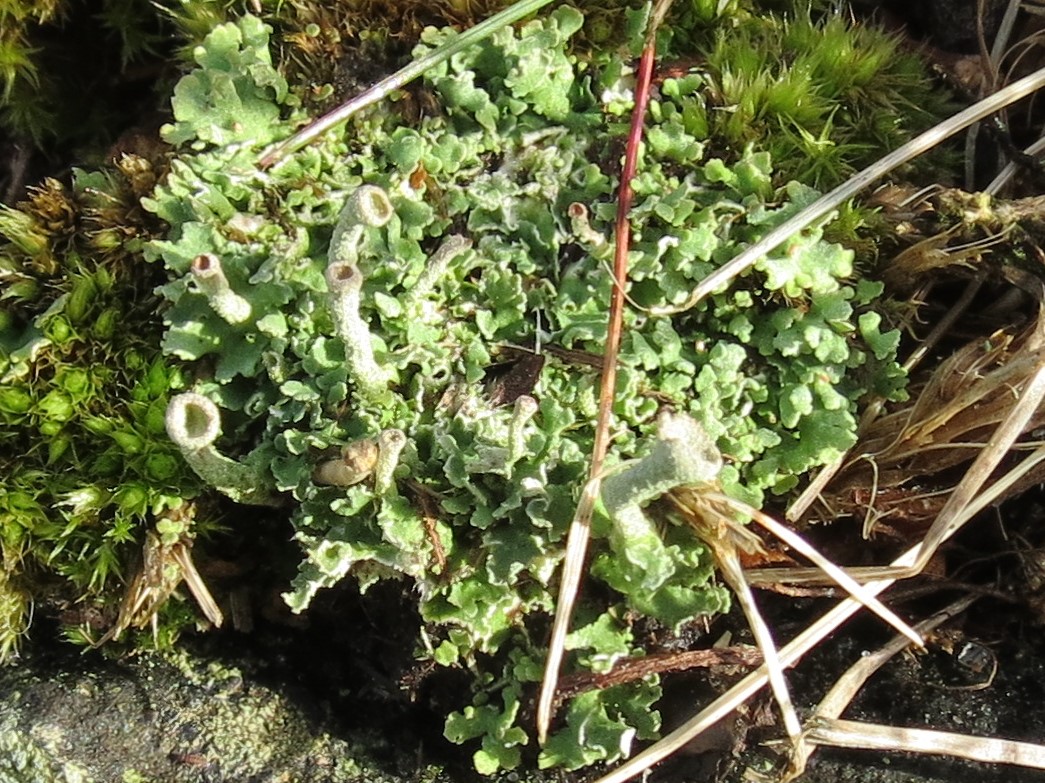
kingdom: Fungi
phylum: Ascomycota
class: Lecanoromycetes
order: Lecanorales
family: Cladoniaceae
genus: Cladonia
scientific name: Cladonia ochrochlora
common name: stød-bægerlav
